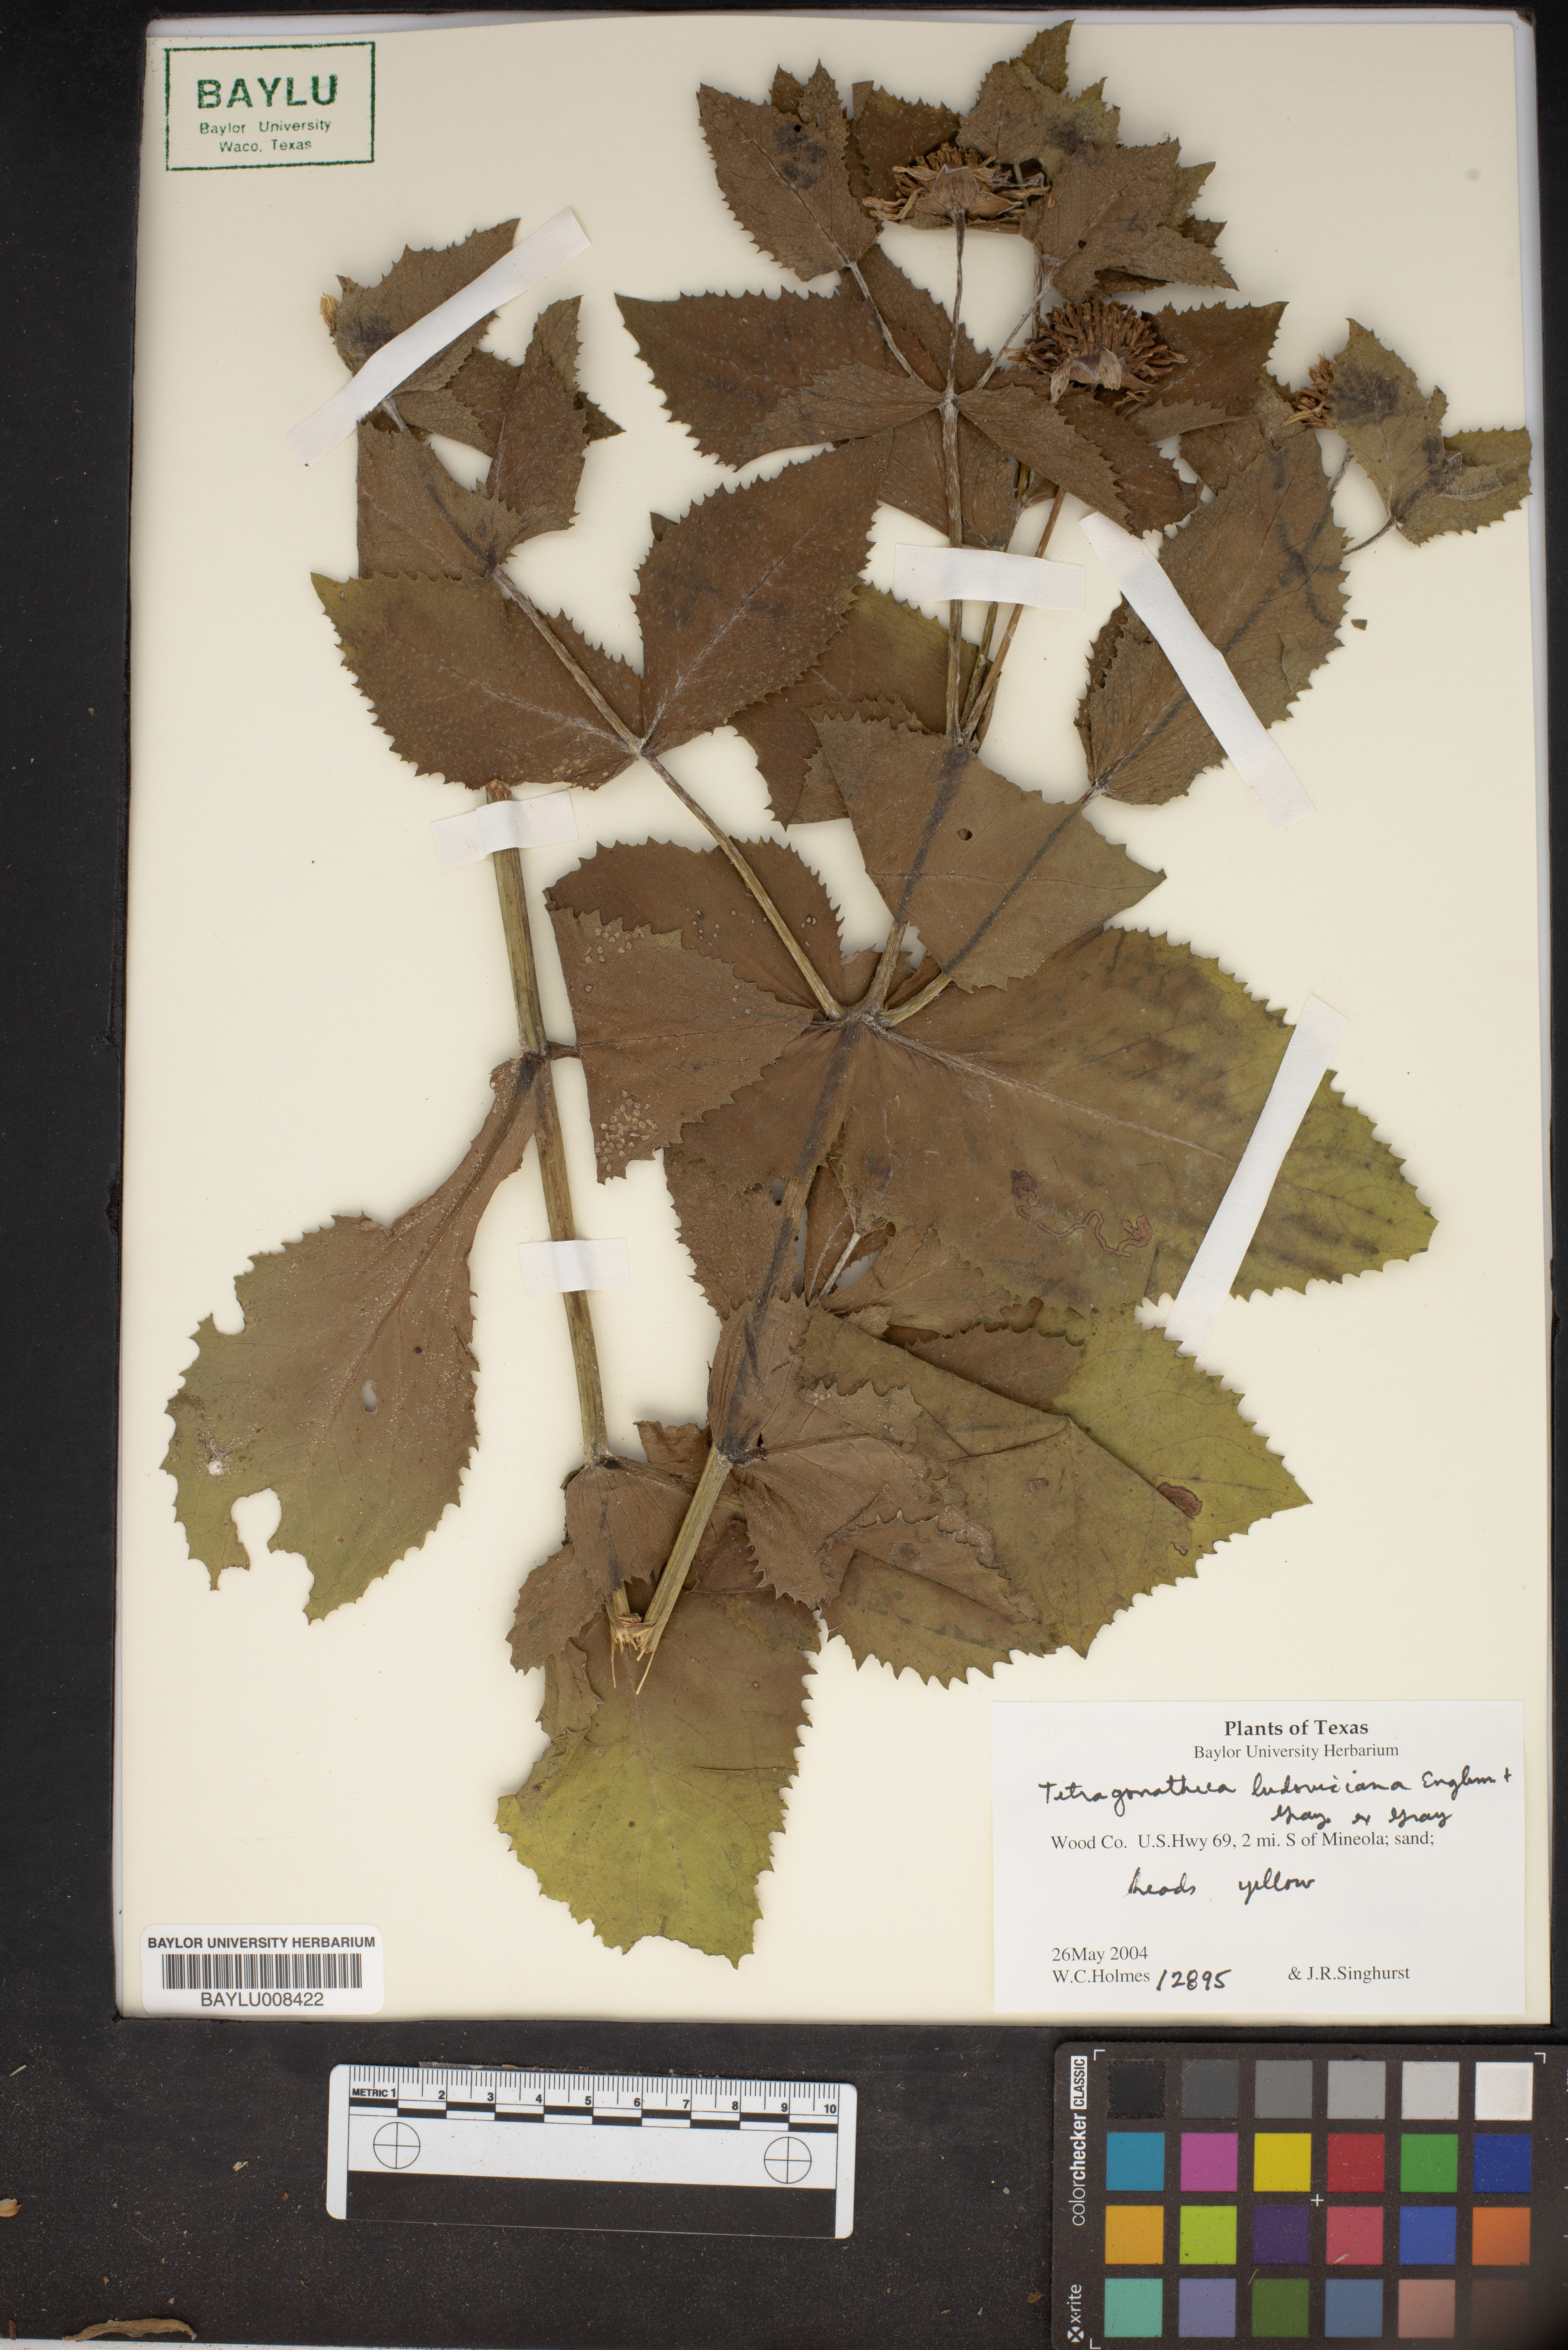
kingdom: Plantae
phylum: Tracheophyta
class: Magnoliopsida
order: Asterales
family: Asteraceae
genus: Tetragonotheca
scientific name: Tetragonotheca ludoviciana
